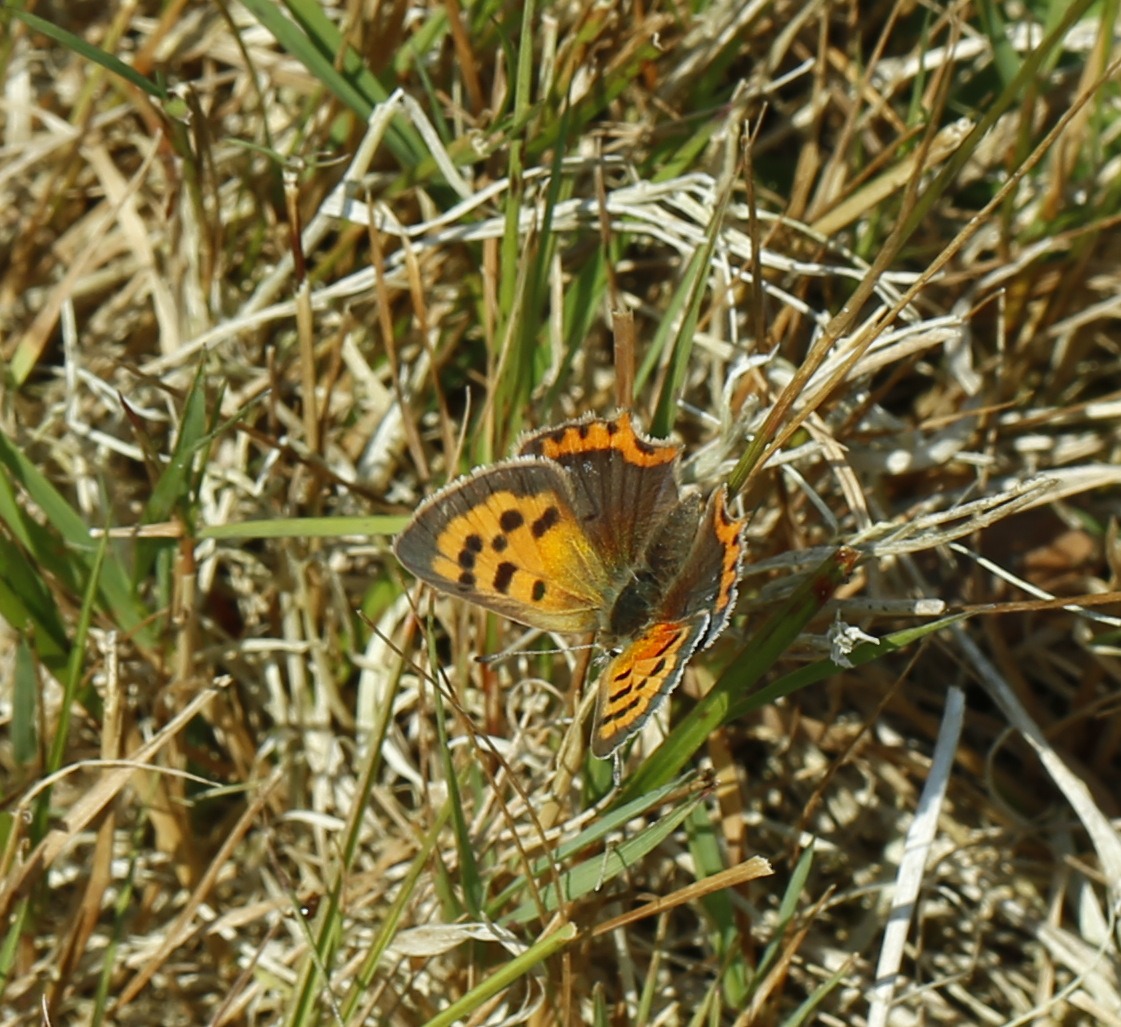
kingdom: Animalia
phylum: Arthropoda
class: Insecta
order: Lepidoptera
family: Lycaenidae
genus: Lycaena
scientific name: Lycaena phlaeas
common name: Lille ildfugl
